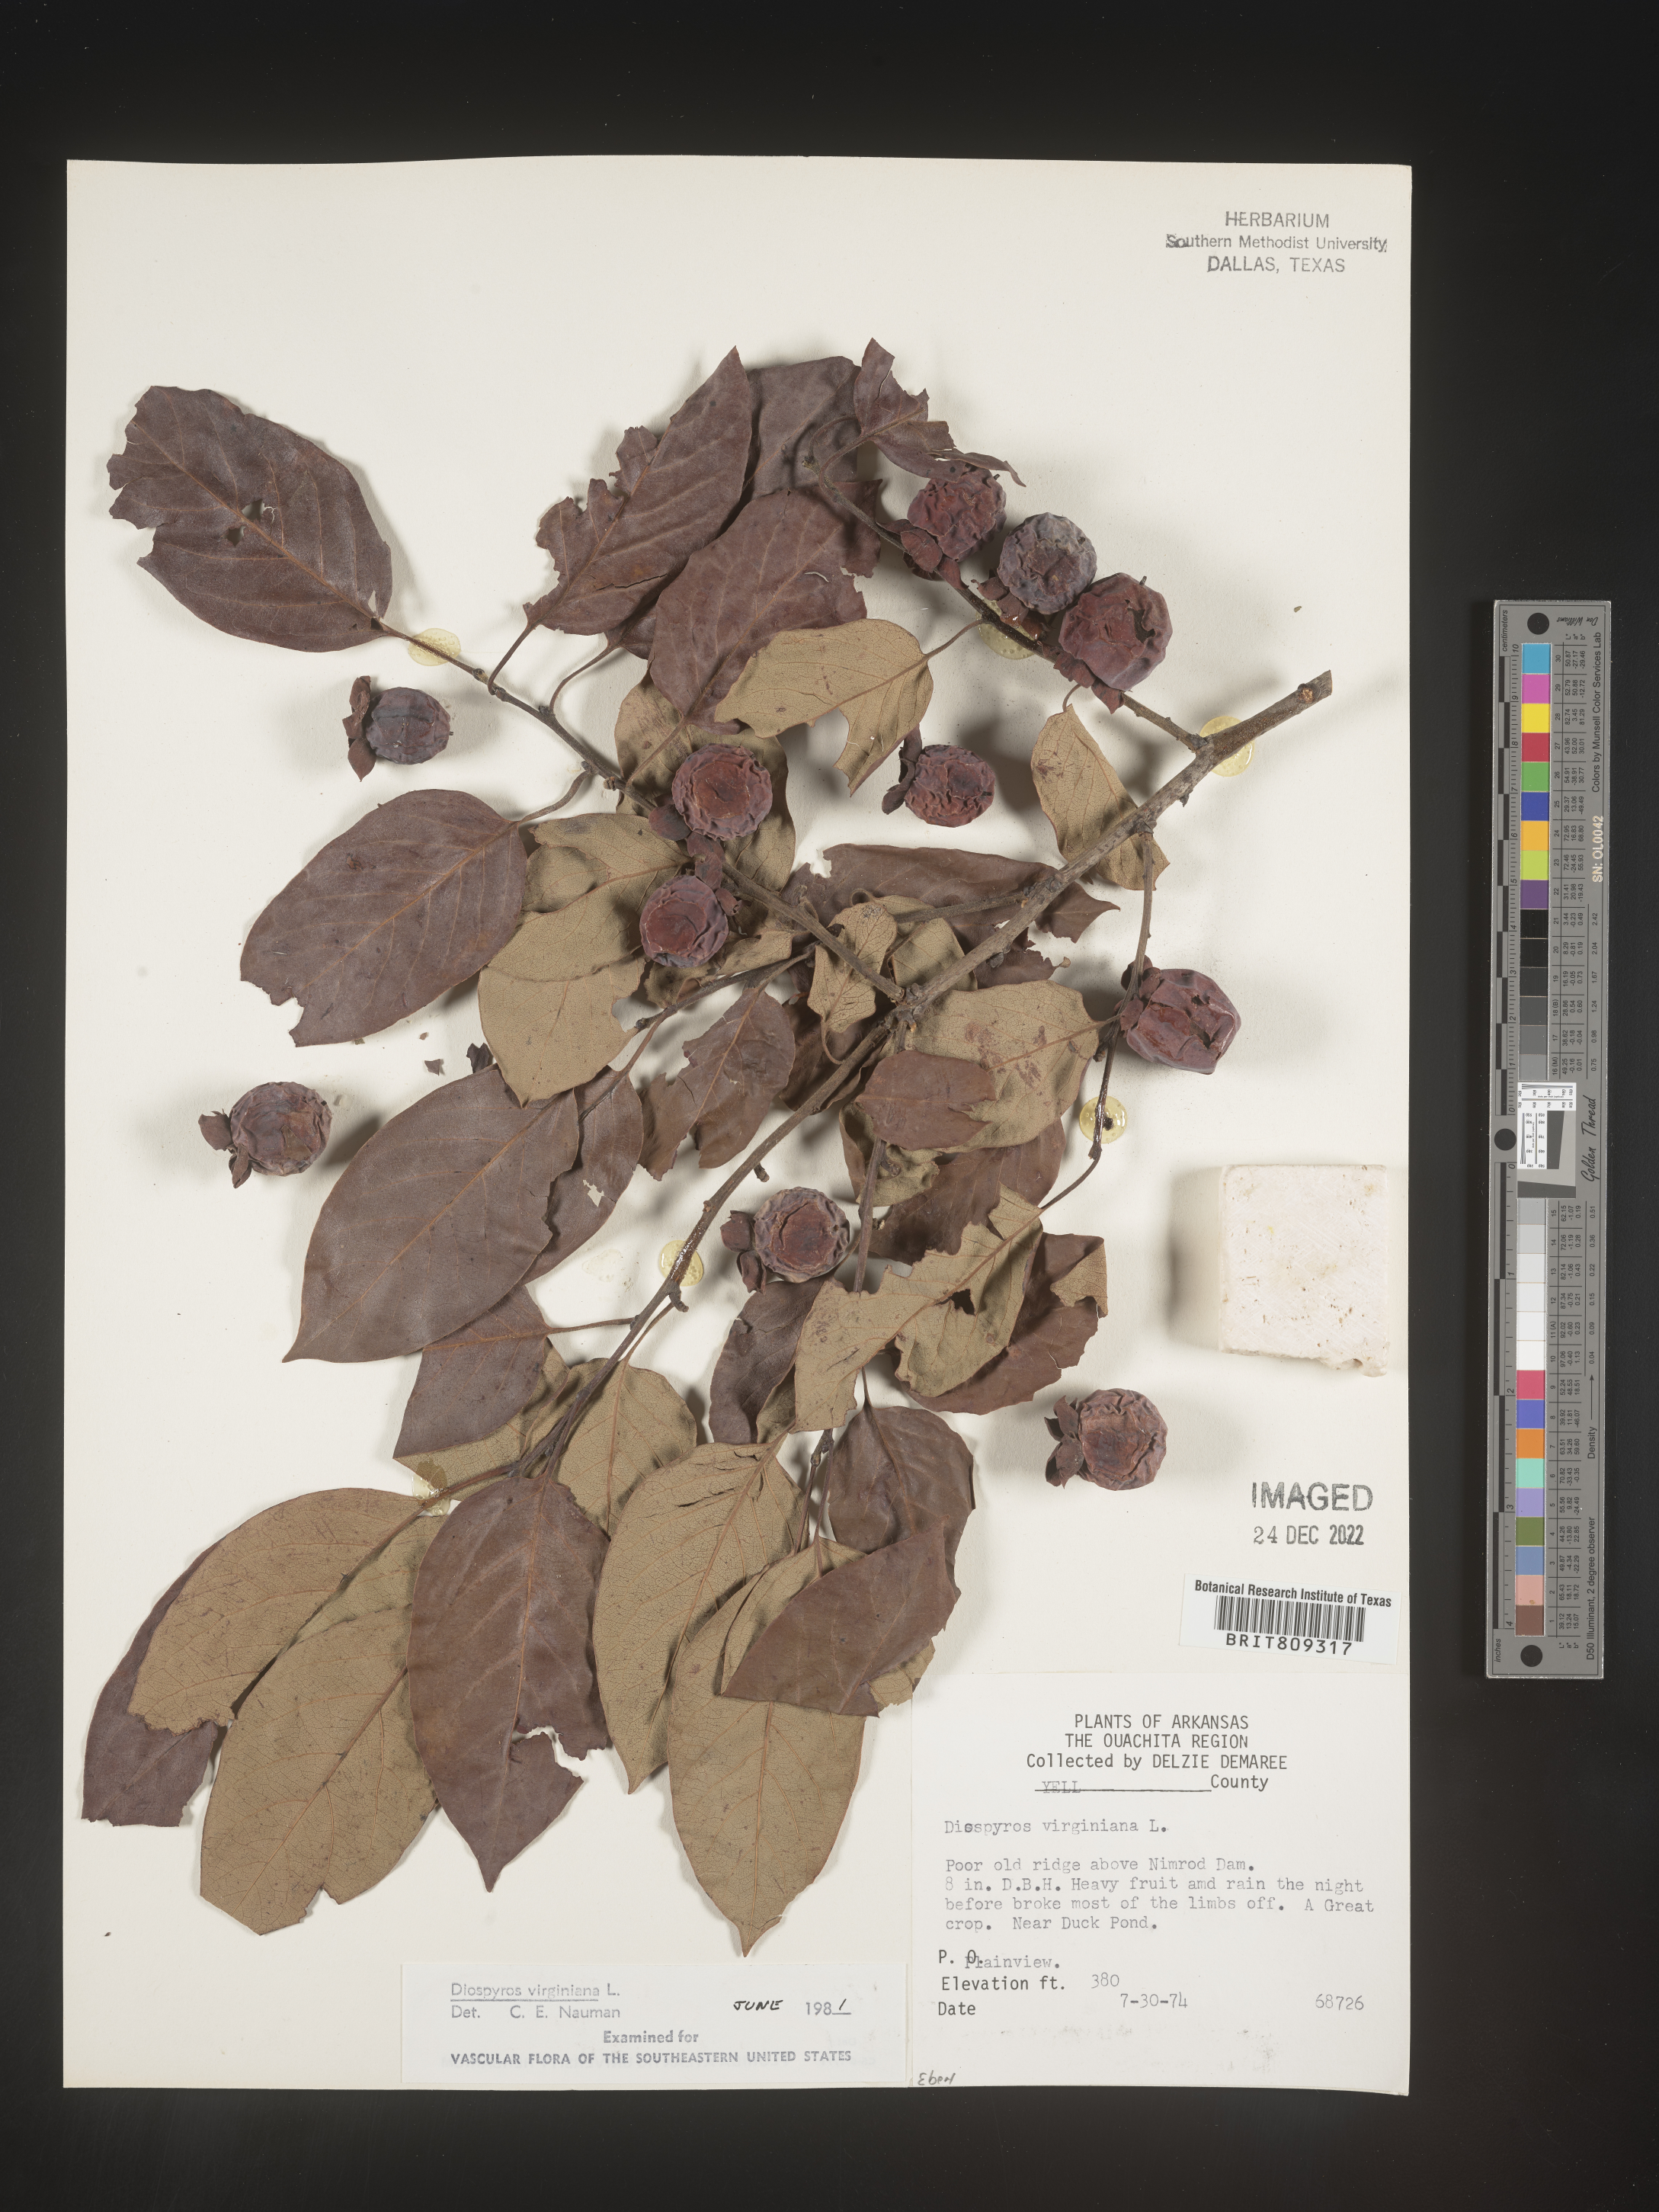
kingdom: Plantae
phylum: Tracheophyta
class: Magnoliopsida
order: Ericales
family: Ebenaceae
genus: Diospyros
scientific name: Diospyros virginiana
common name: Persimmon
